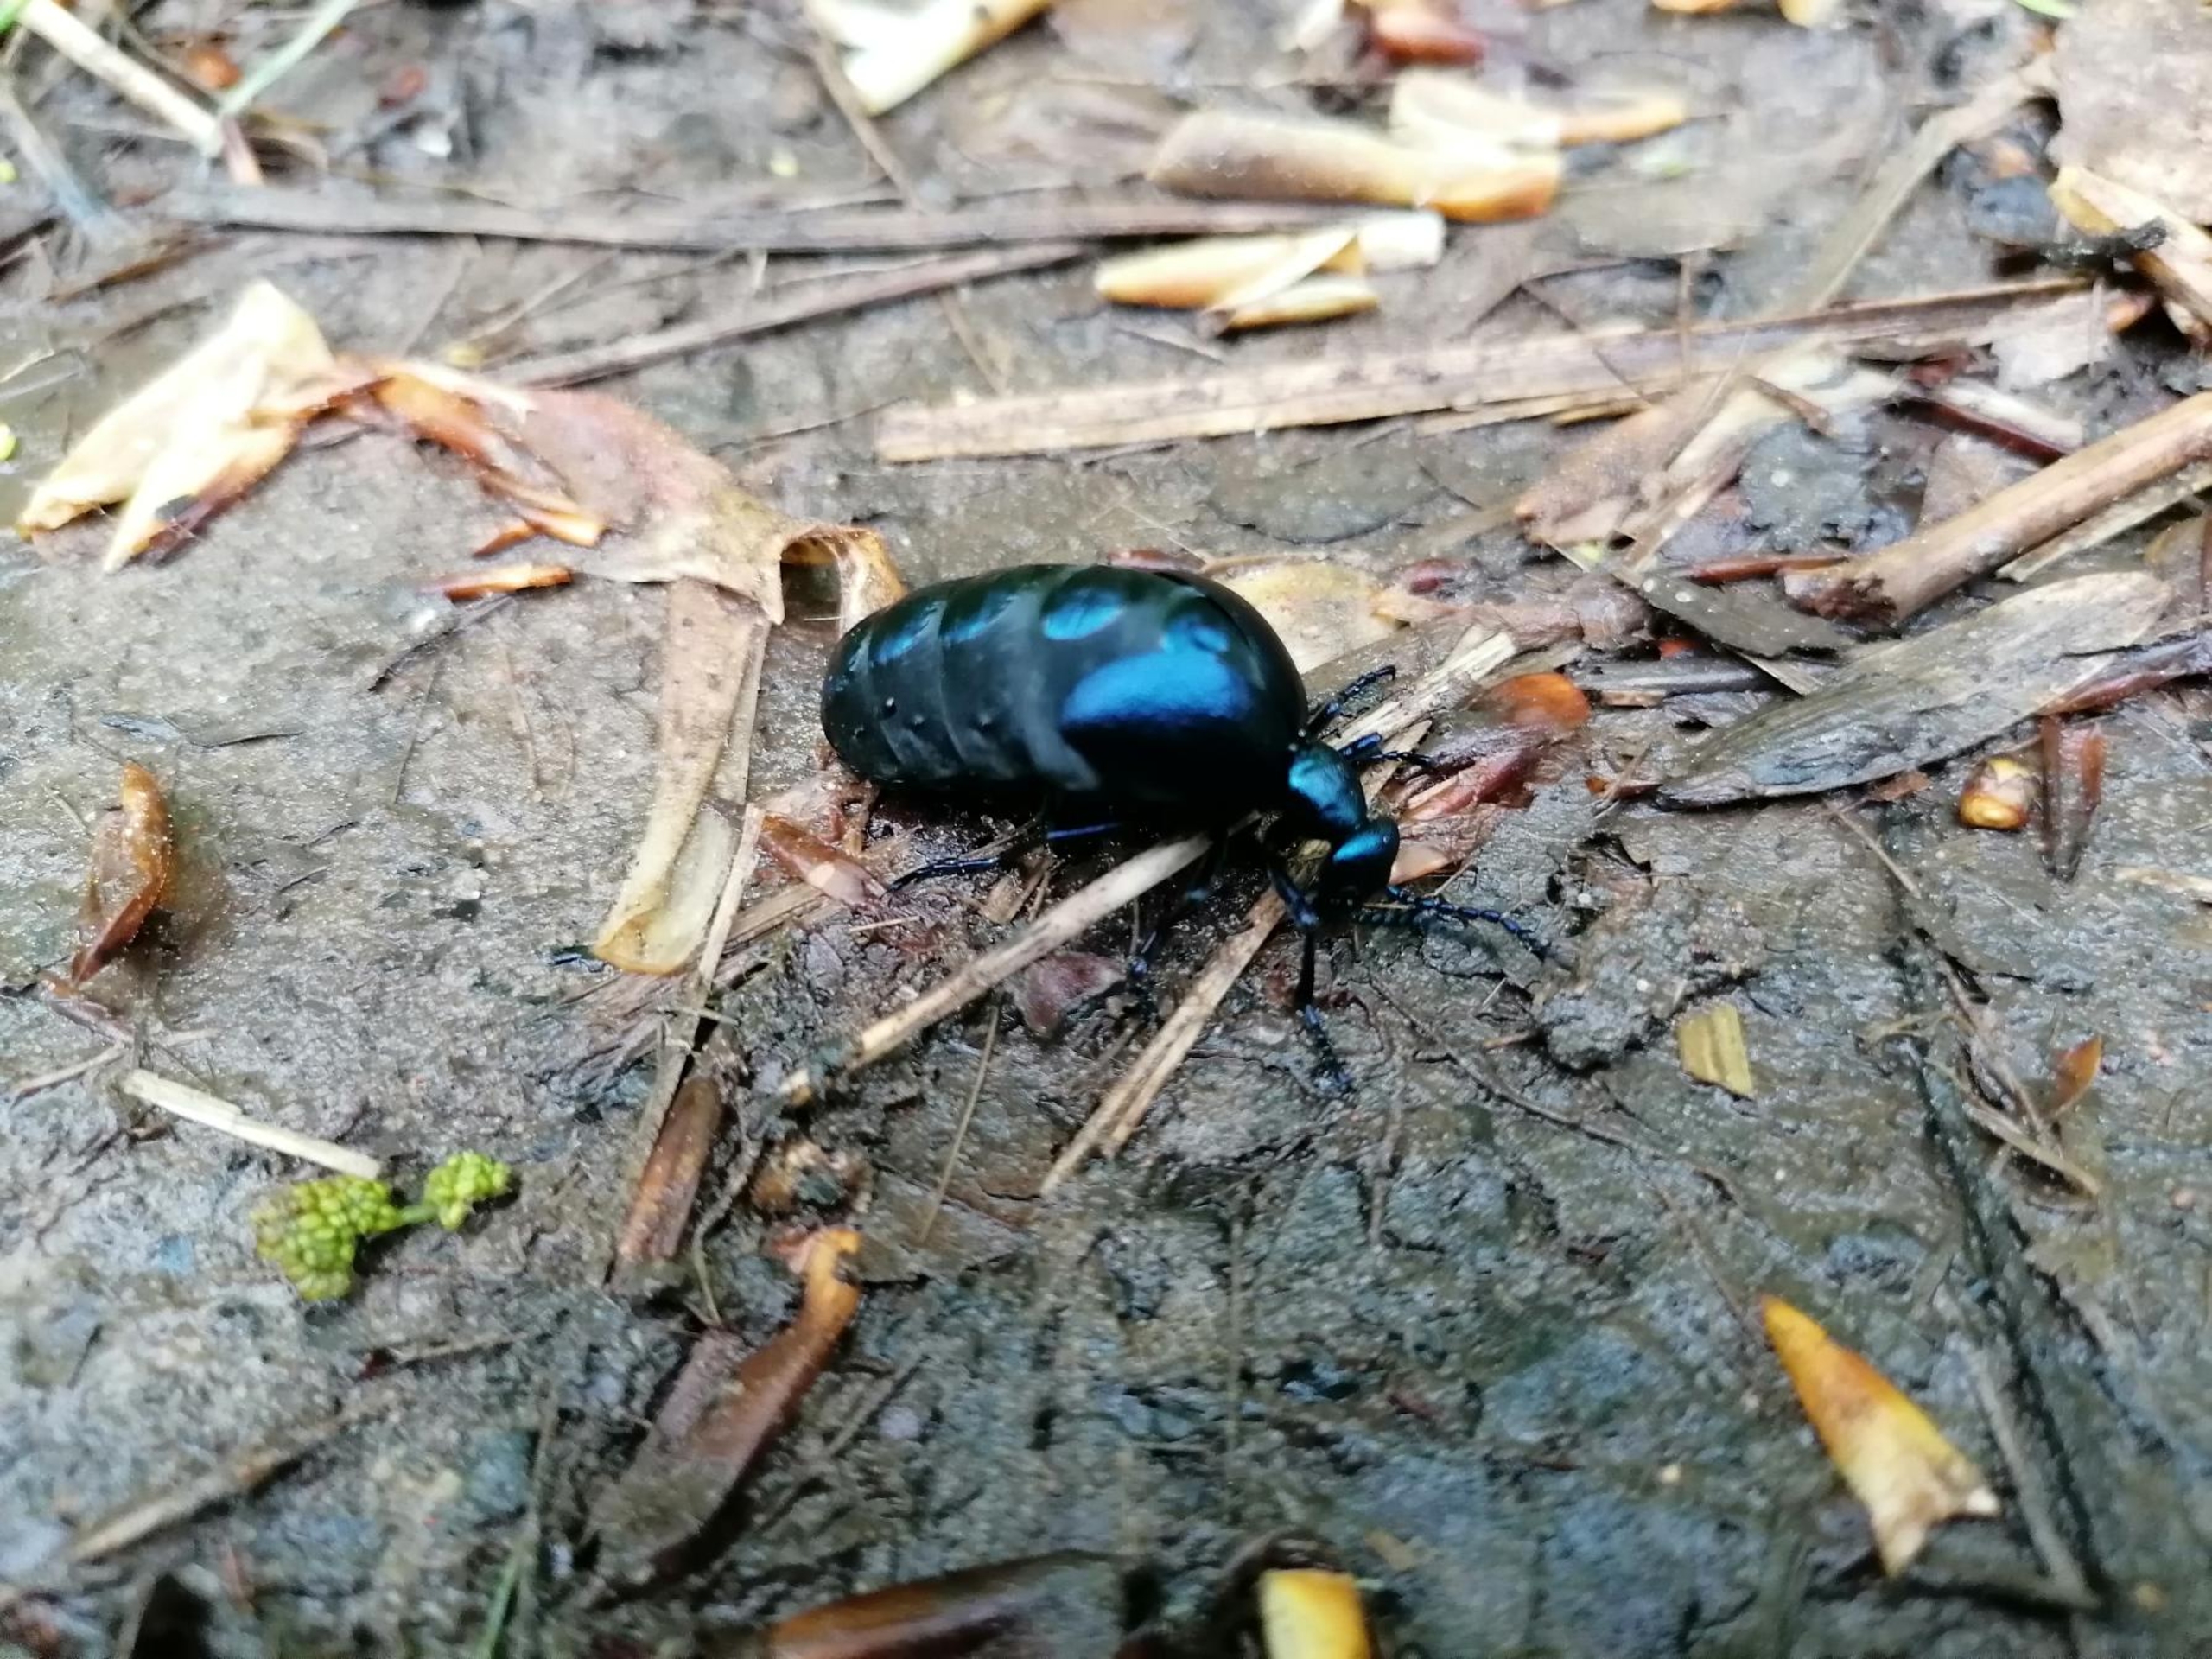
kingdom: Animalia
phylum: Arthropoda
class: Insecta
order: Coleoptera
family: Meloidae
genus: Meloe
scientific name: Meloe violaceus
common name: Blå oliebille
